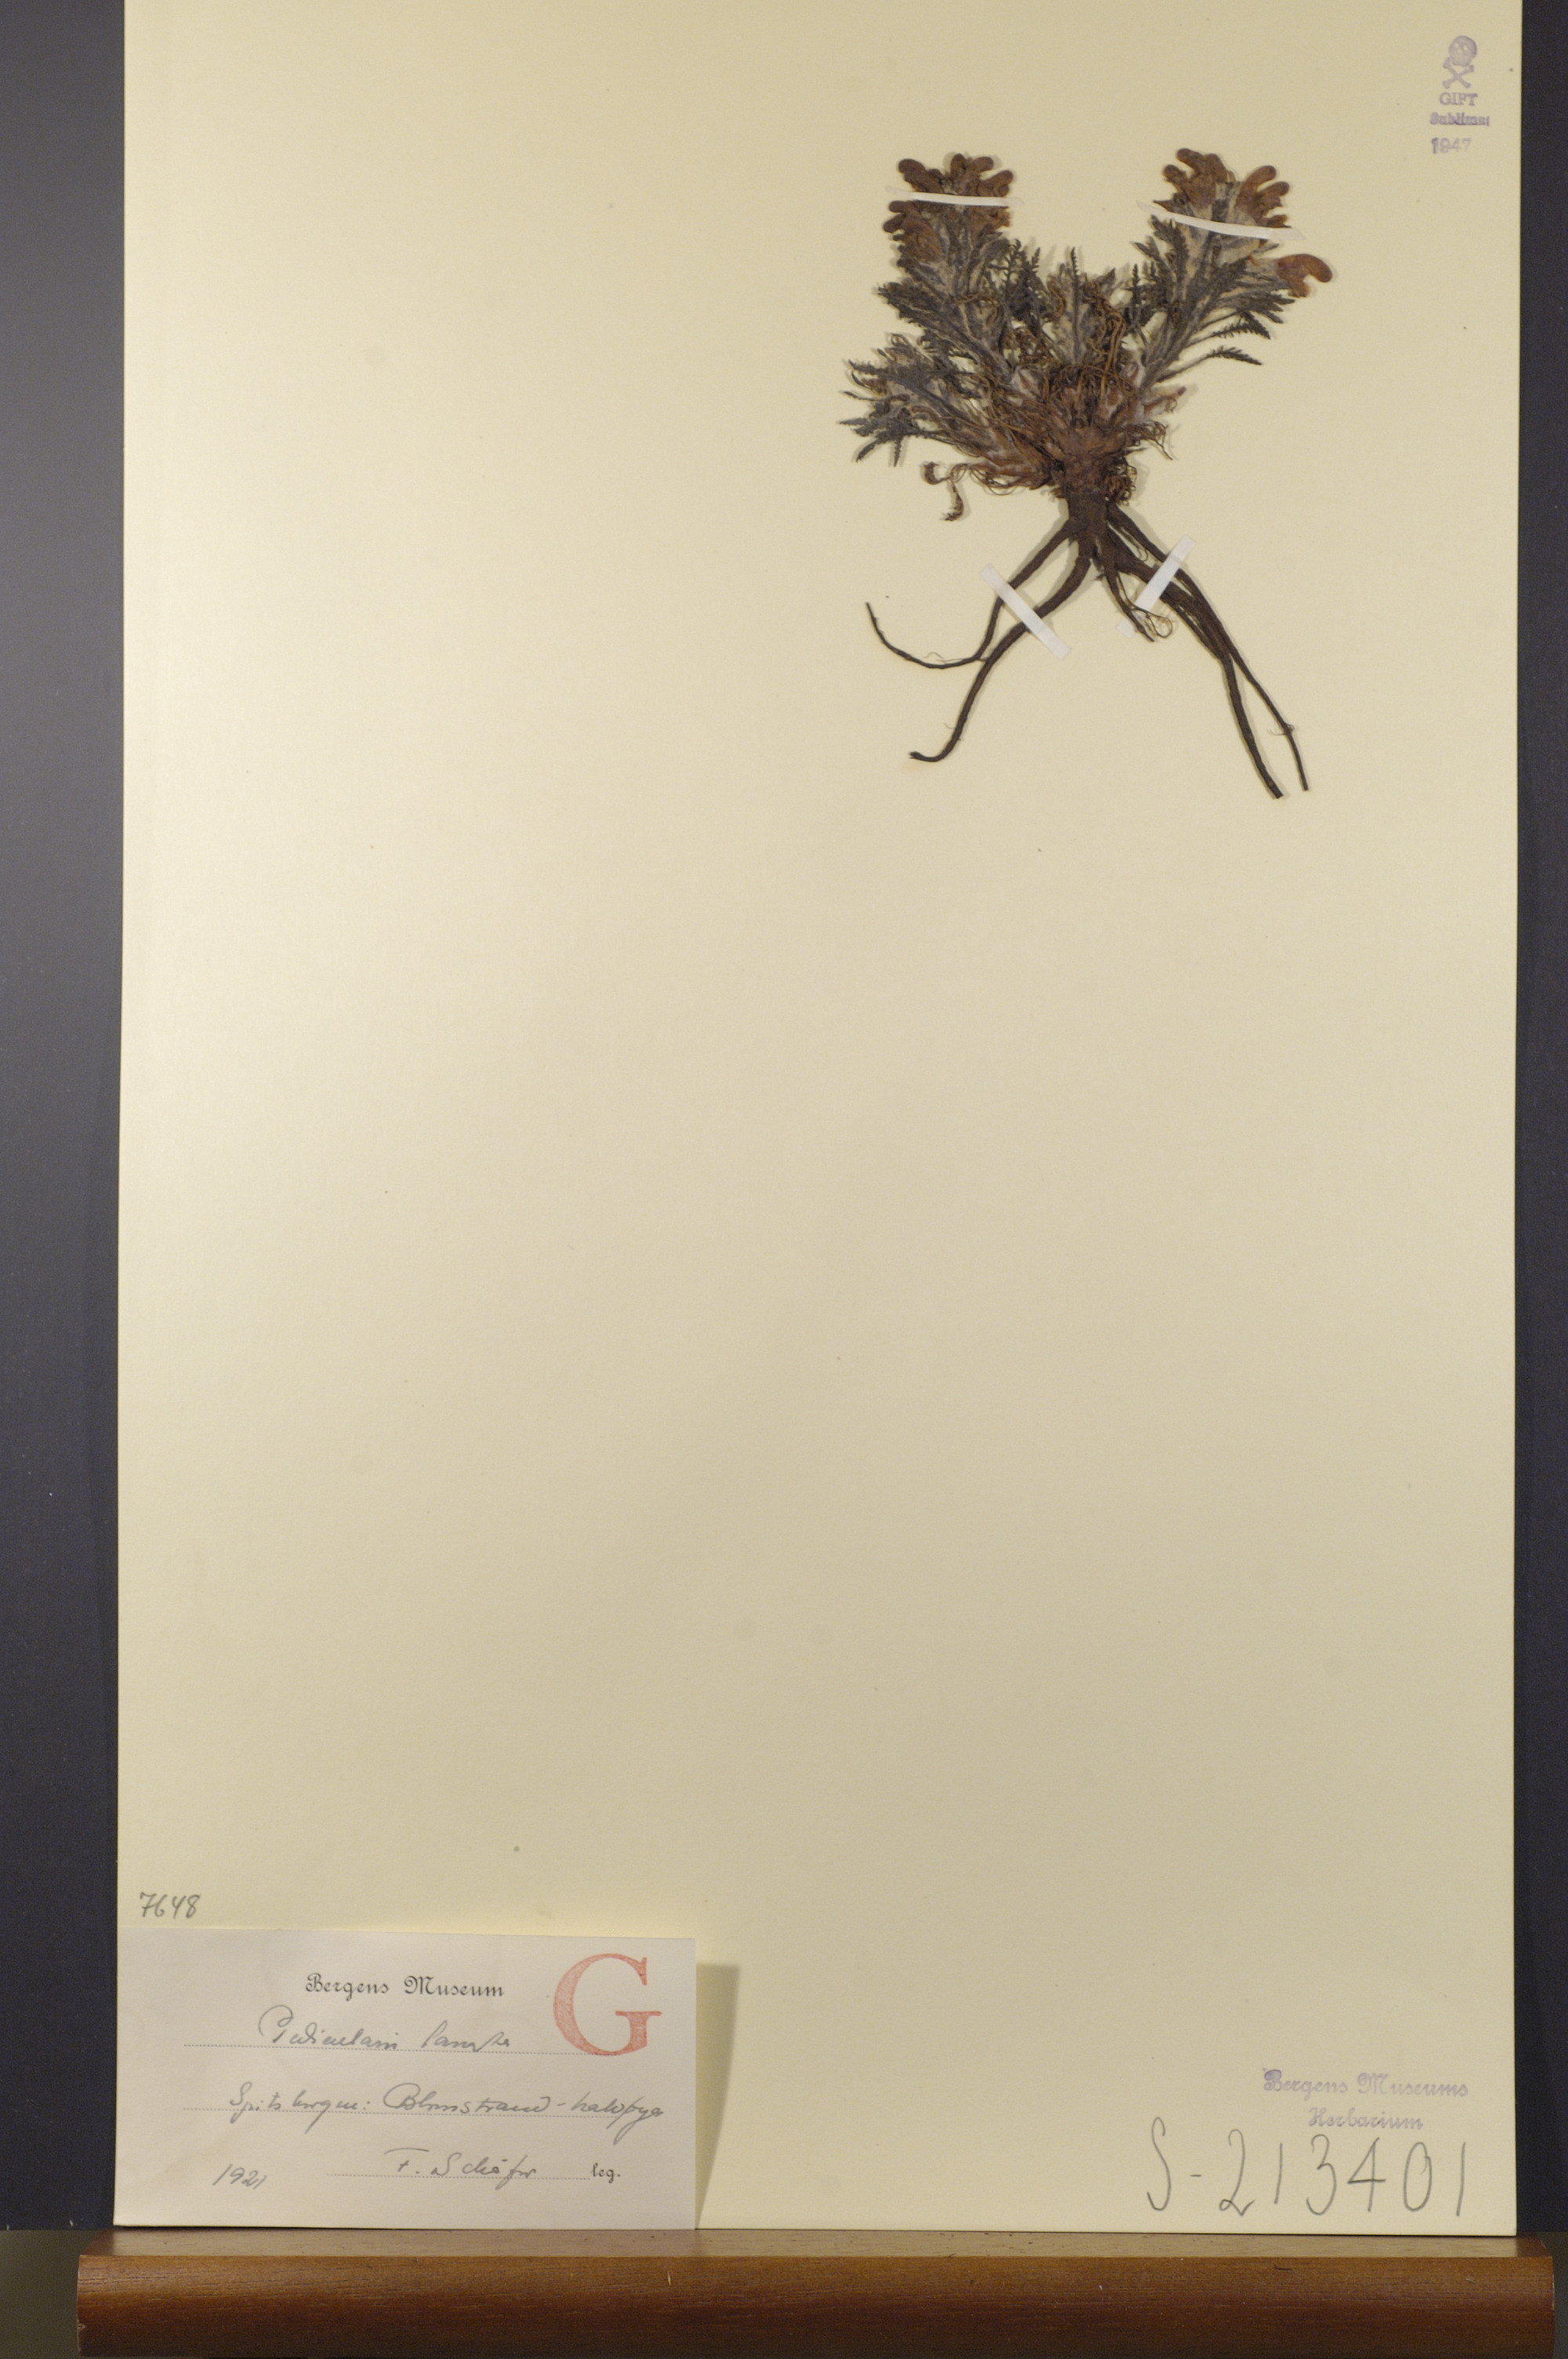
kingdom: Plantae
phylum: Tracheophyta
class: Magnoliopsida
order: Lamiales
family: Orobanchaceae
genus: Pedicularis
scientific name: Pedicularis lanata
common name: Woolly lousewort
